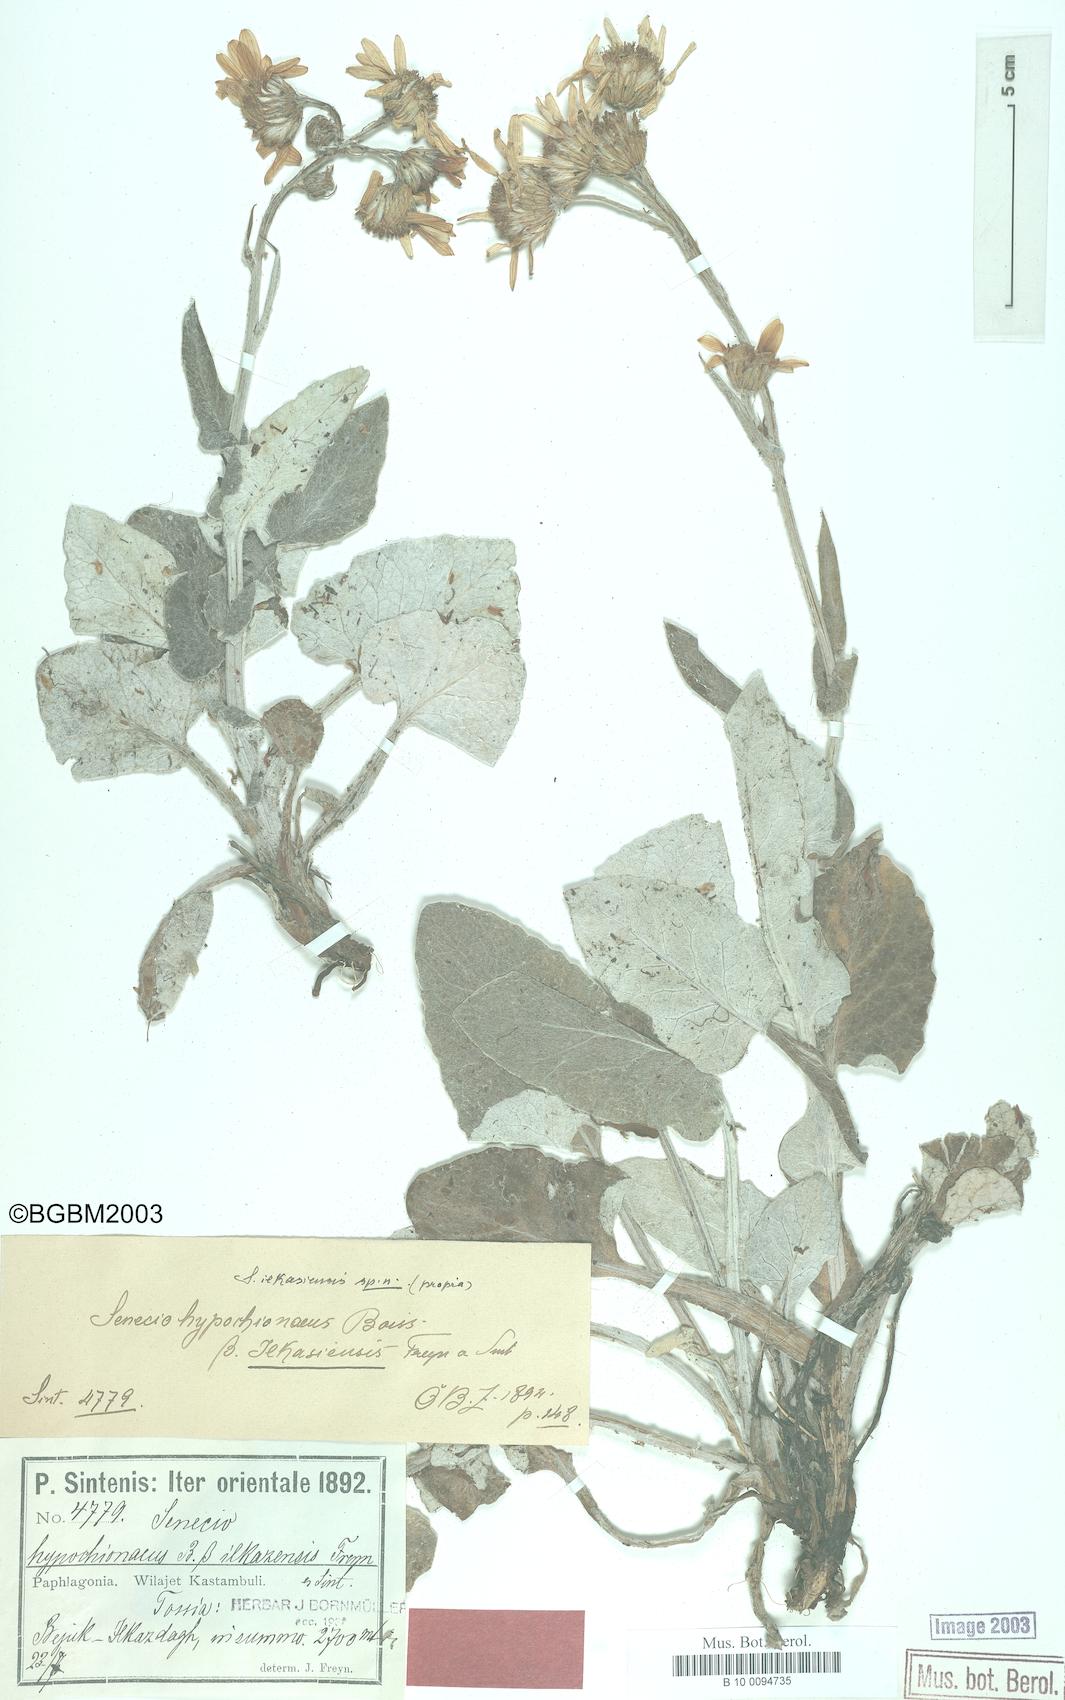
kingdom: Plantae
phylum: Tracheophyta
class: Magnoliopsida
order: Asterales
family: Asteraceae
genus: Turanecio
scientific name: Turanecio hypochionaeus
